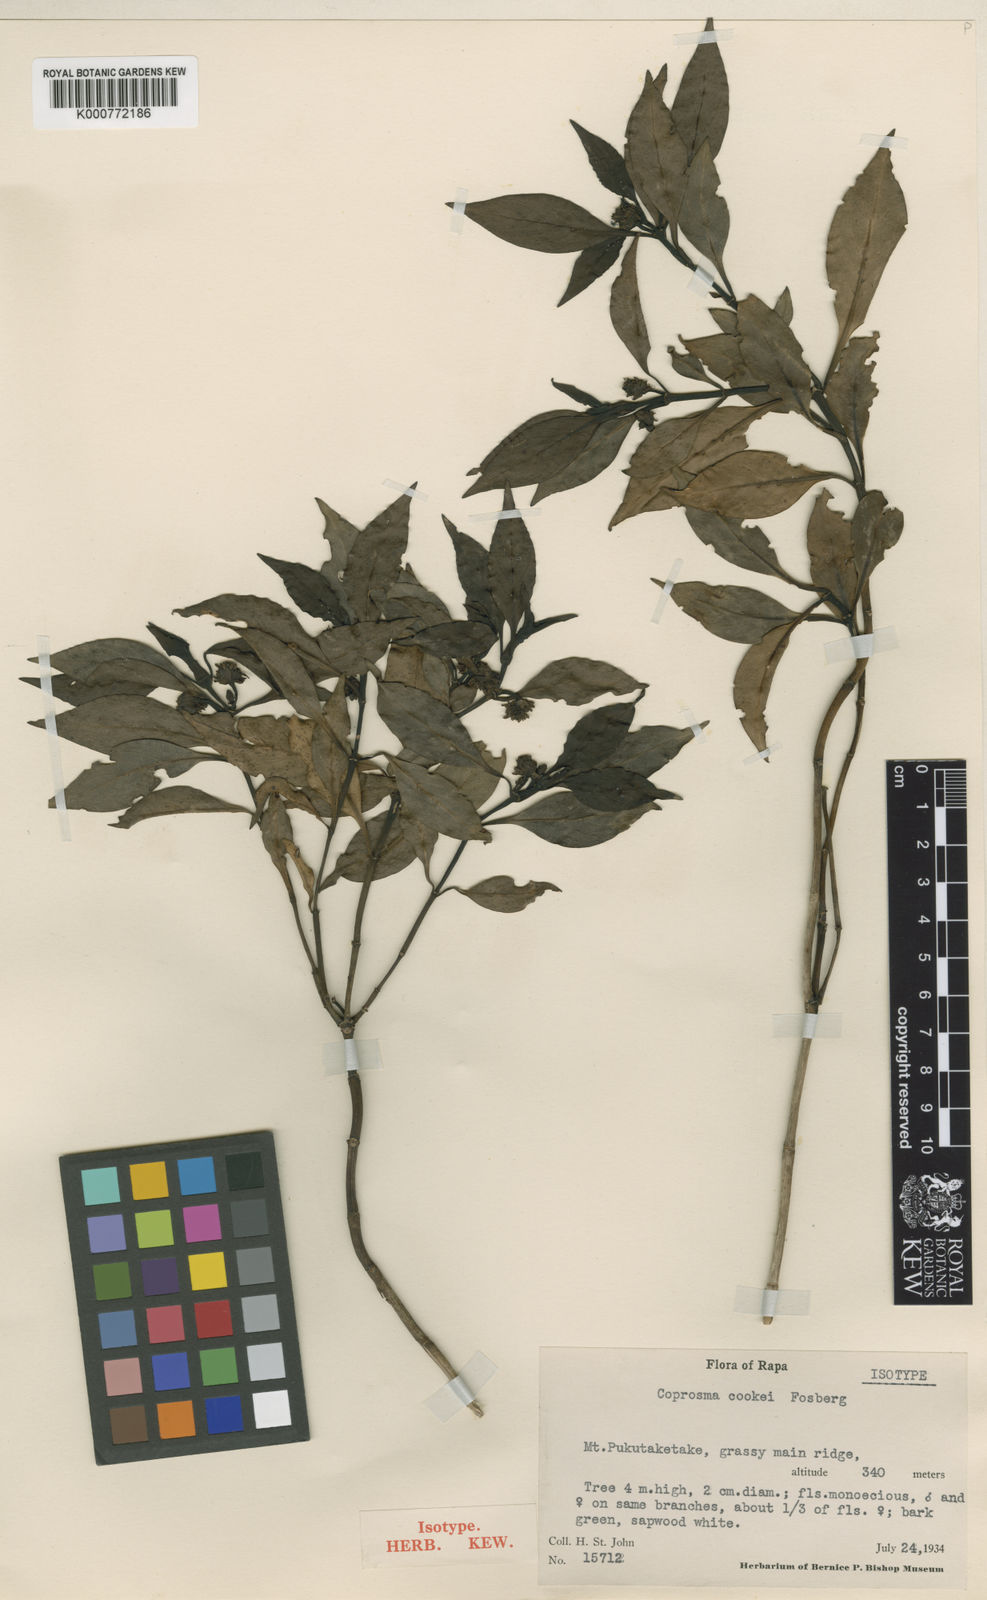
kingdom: Plantae
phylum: Tracheophyta
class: Magnoliopsida
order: Gentianales
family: Rubiaceae
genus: Coprosma
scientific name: Coprosma cookei
